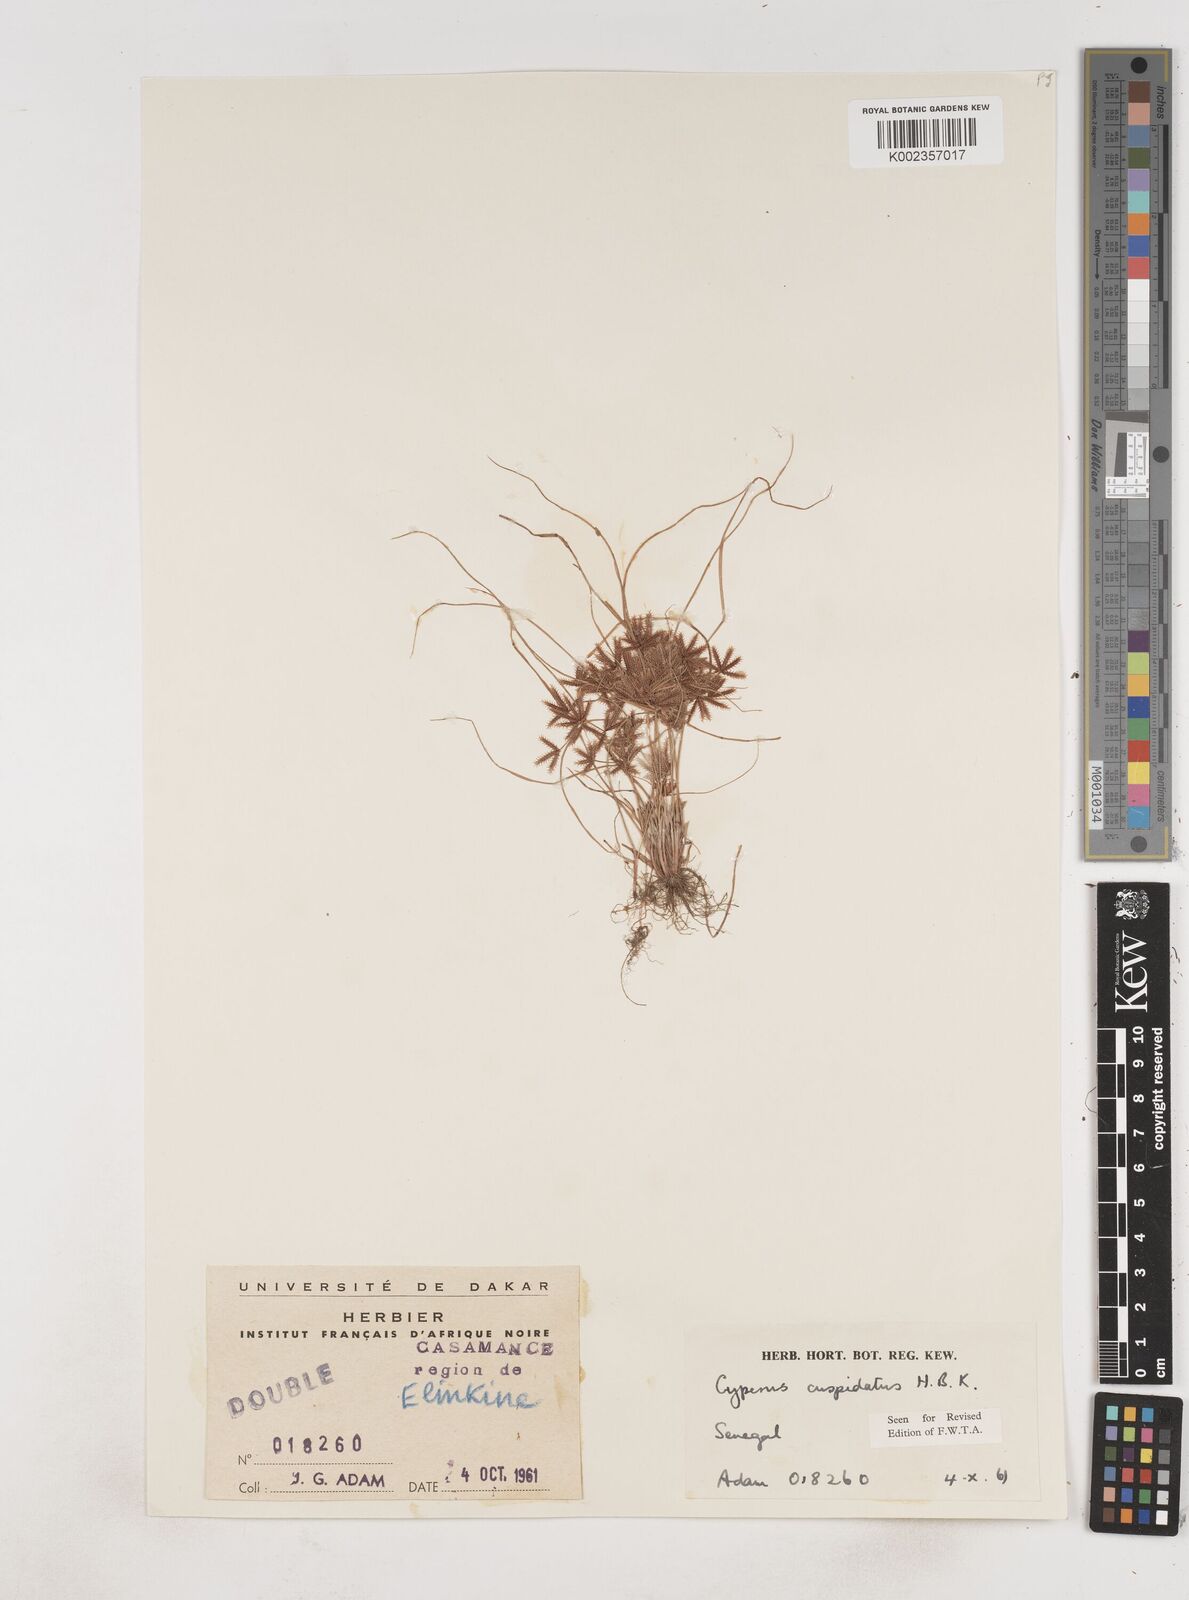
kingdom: Plantae
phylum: Tracheophyta
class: Liliopsida
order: Poales
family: Cyperaceae
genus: Cyperus
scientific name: Cyperus
